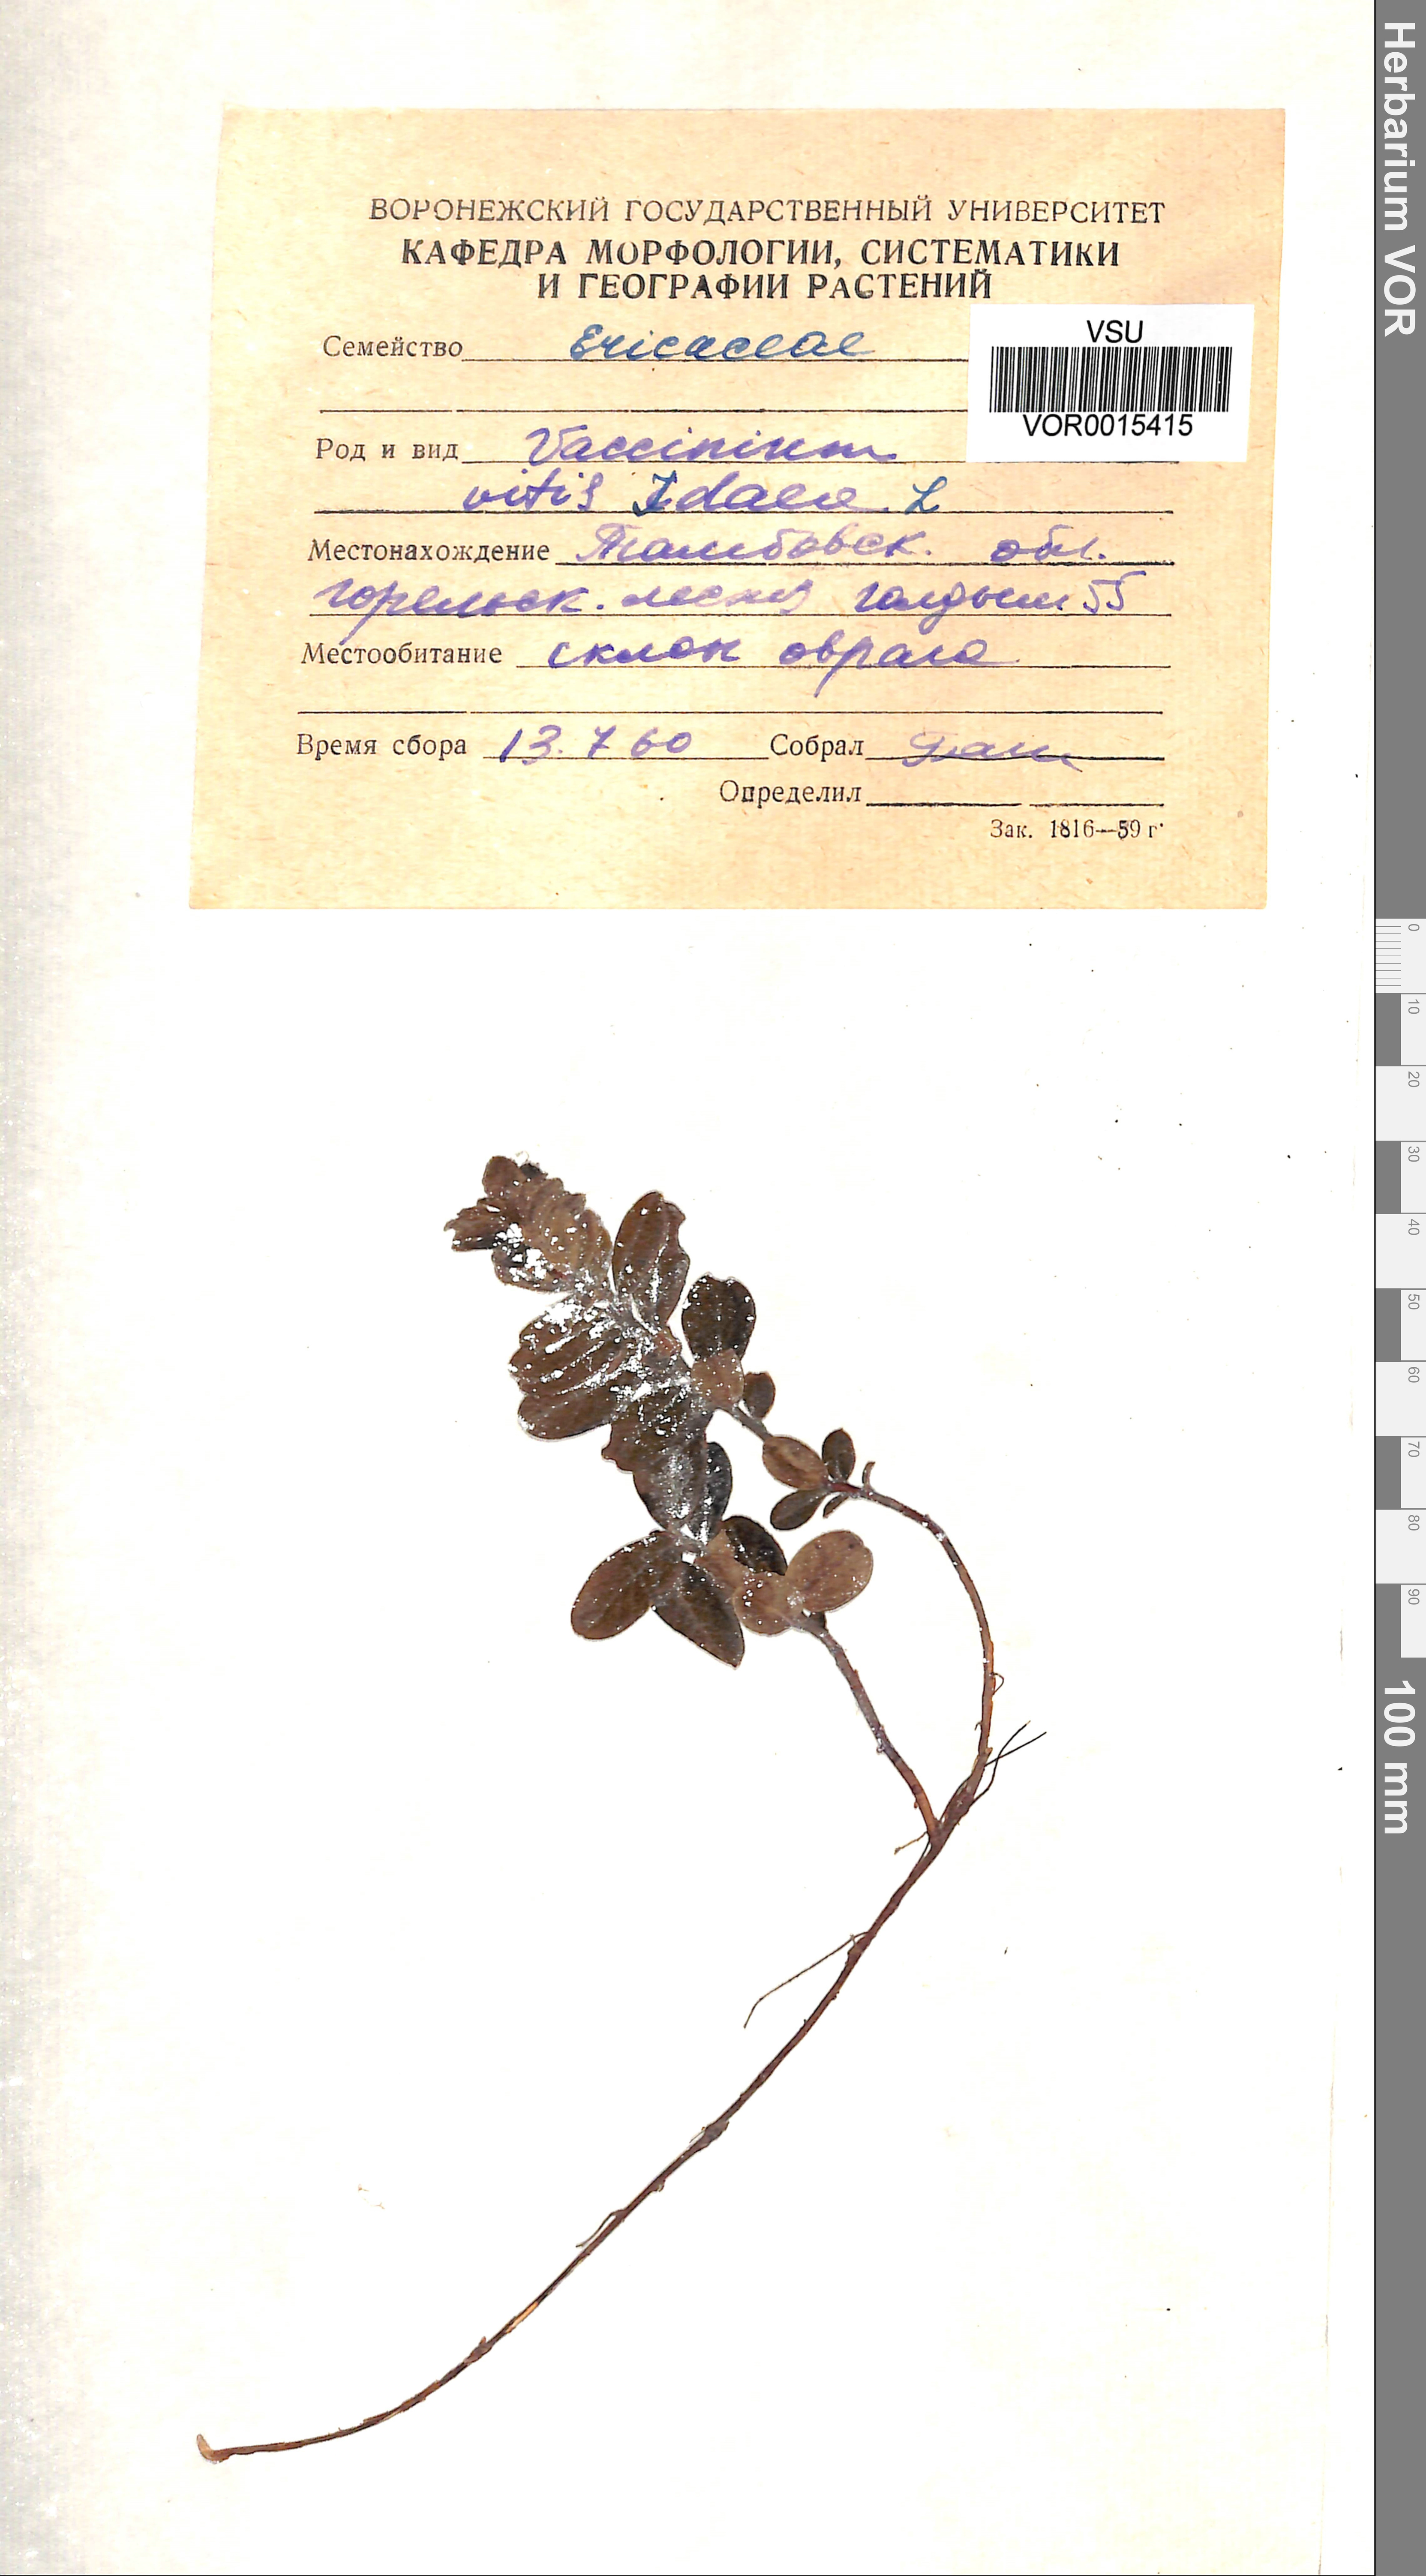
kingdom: Plantae
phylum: Tracheophyta
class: Magnoliopsida
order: Ericales
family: Ericaceae
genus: Vaccinium
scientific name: Vaccinium vitis-idaea
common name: Cowberry
